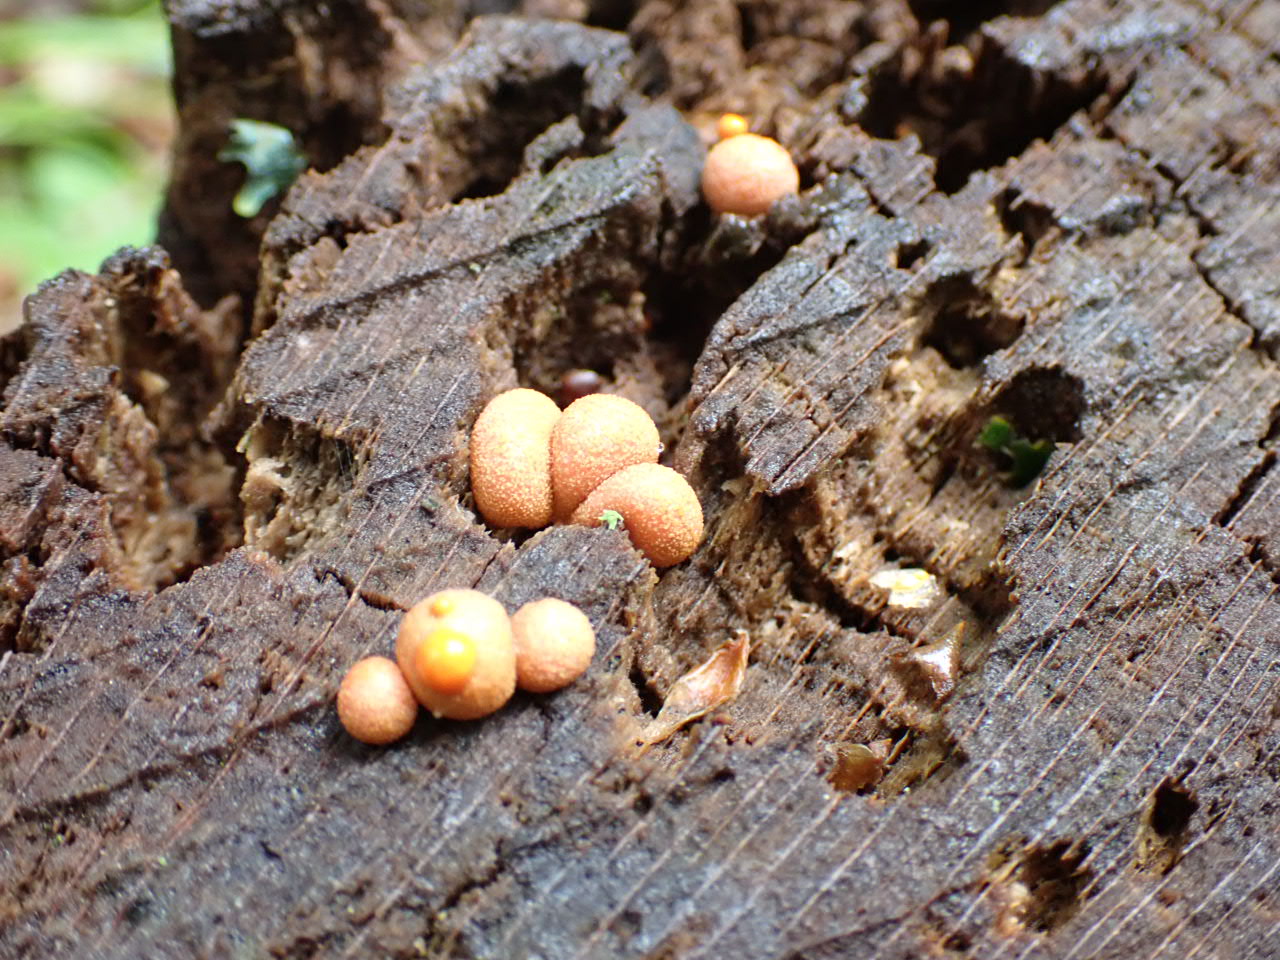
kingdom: Protozoa
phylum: Mycetozoa
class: Myxomycetes
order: Cribrariales
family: Tubiferaceae
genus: Lycogala
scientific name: Lycogala epidendrum
